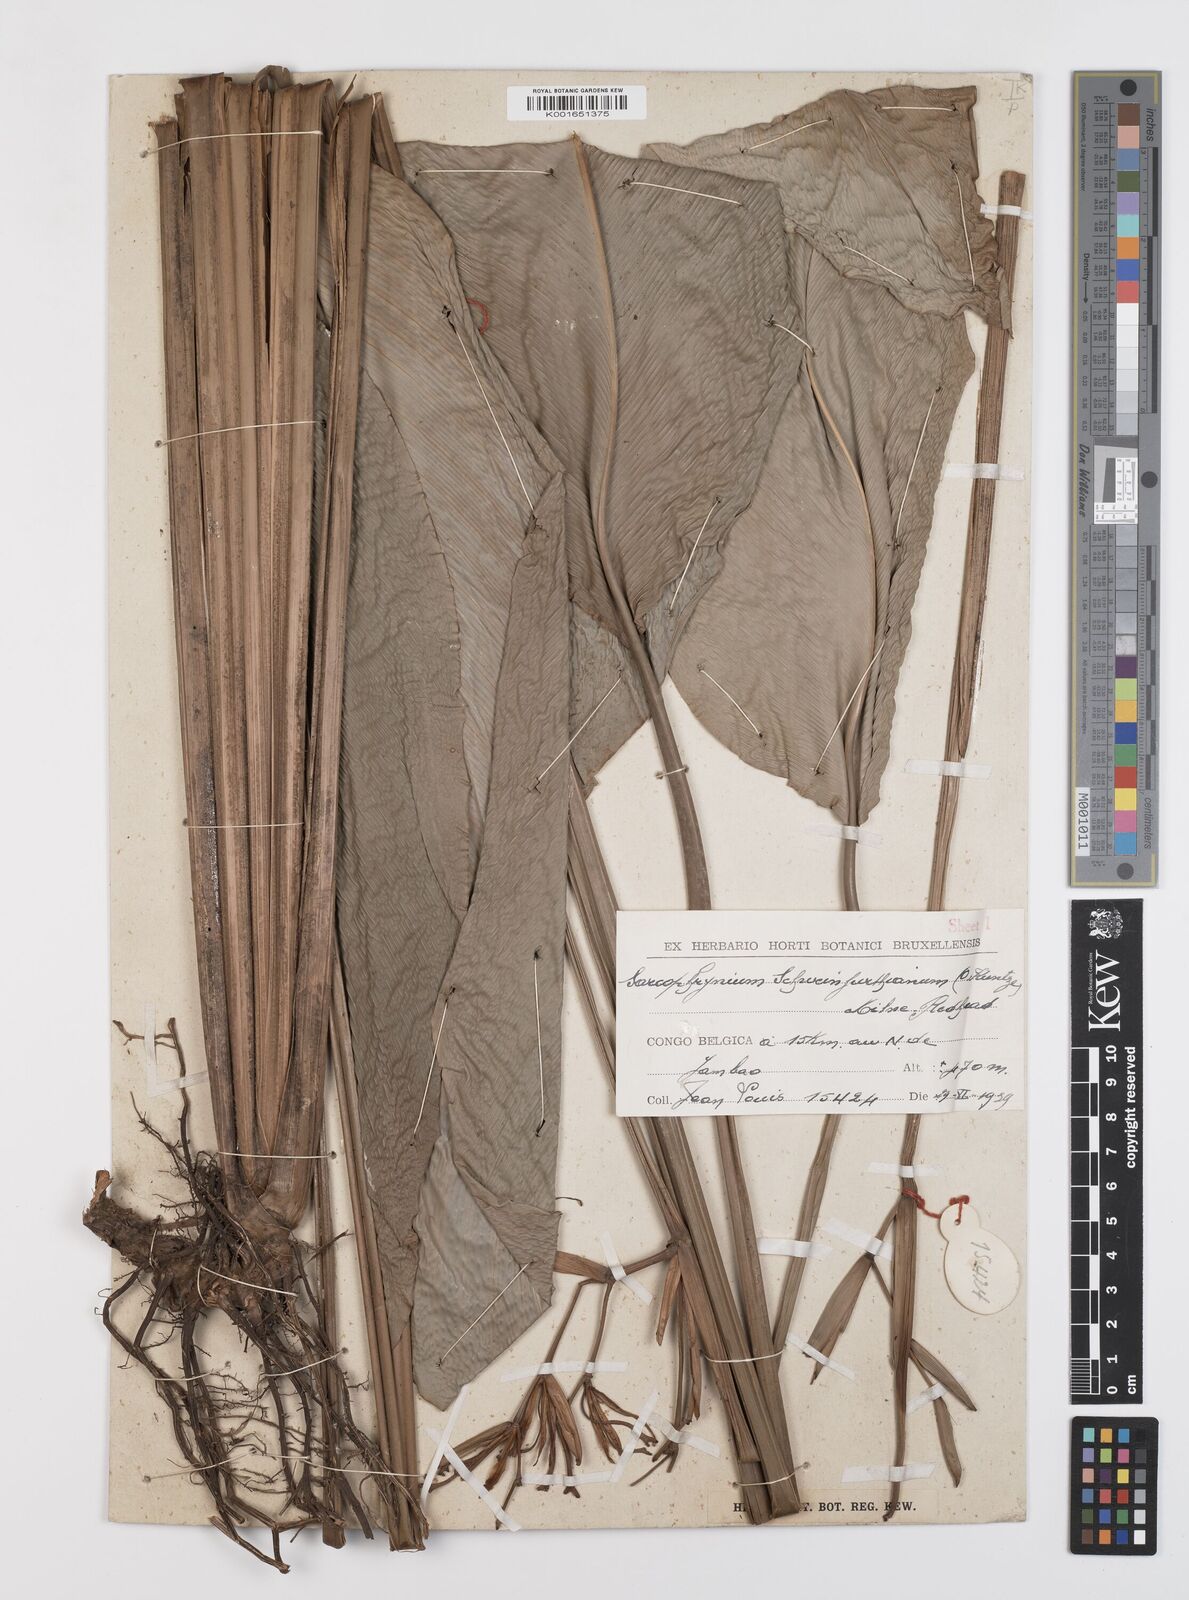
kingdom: Plantae
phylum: Tracheophyta
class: Liliopsida
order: Zingiberales
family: Marantaceae
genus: Sarcophrynium
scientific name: Sarcophrynium schweinfurthianum
